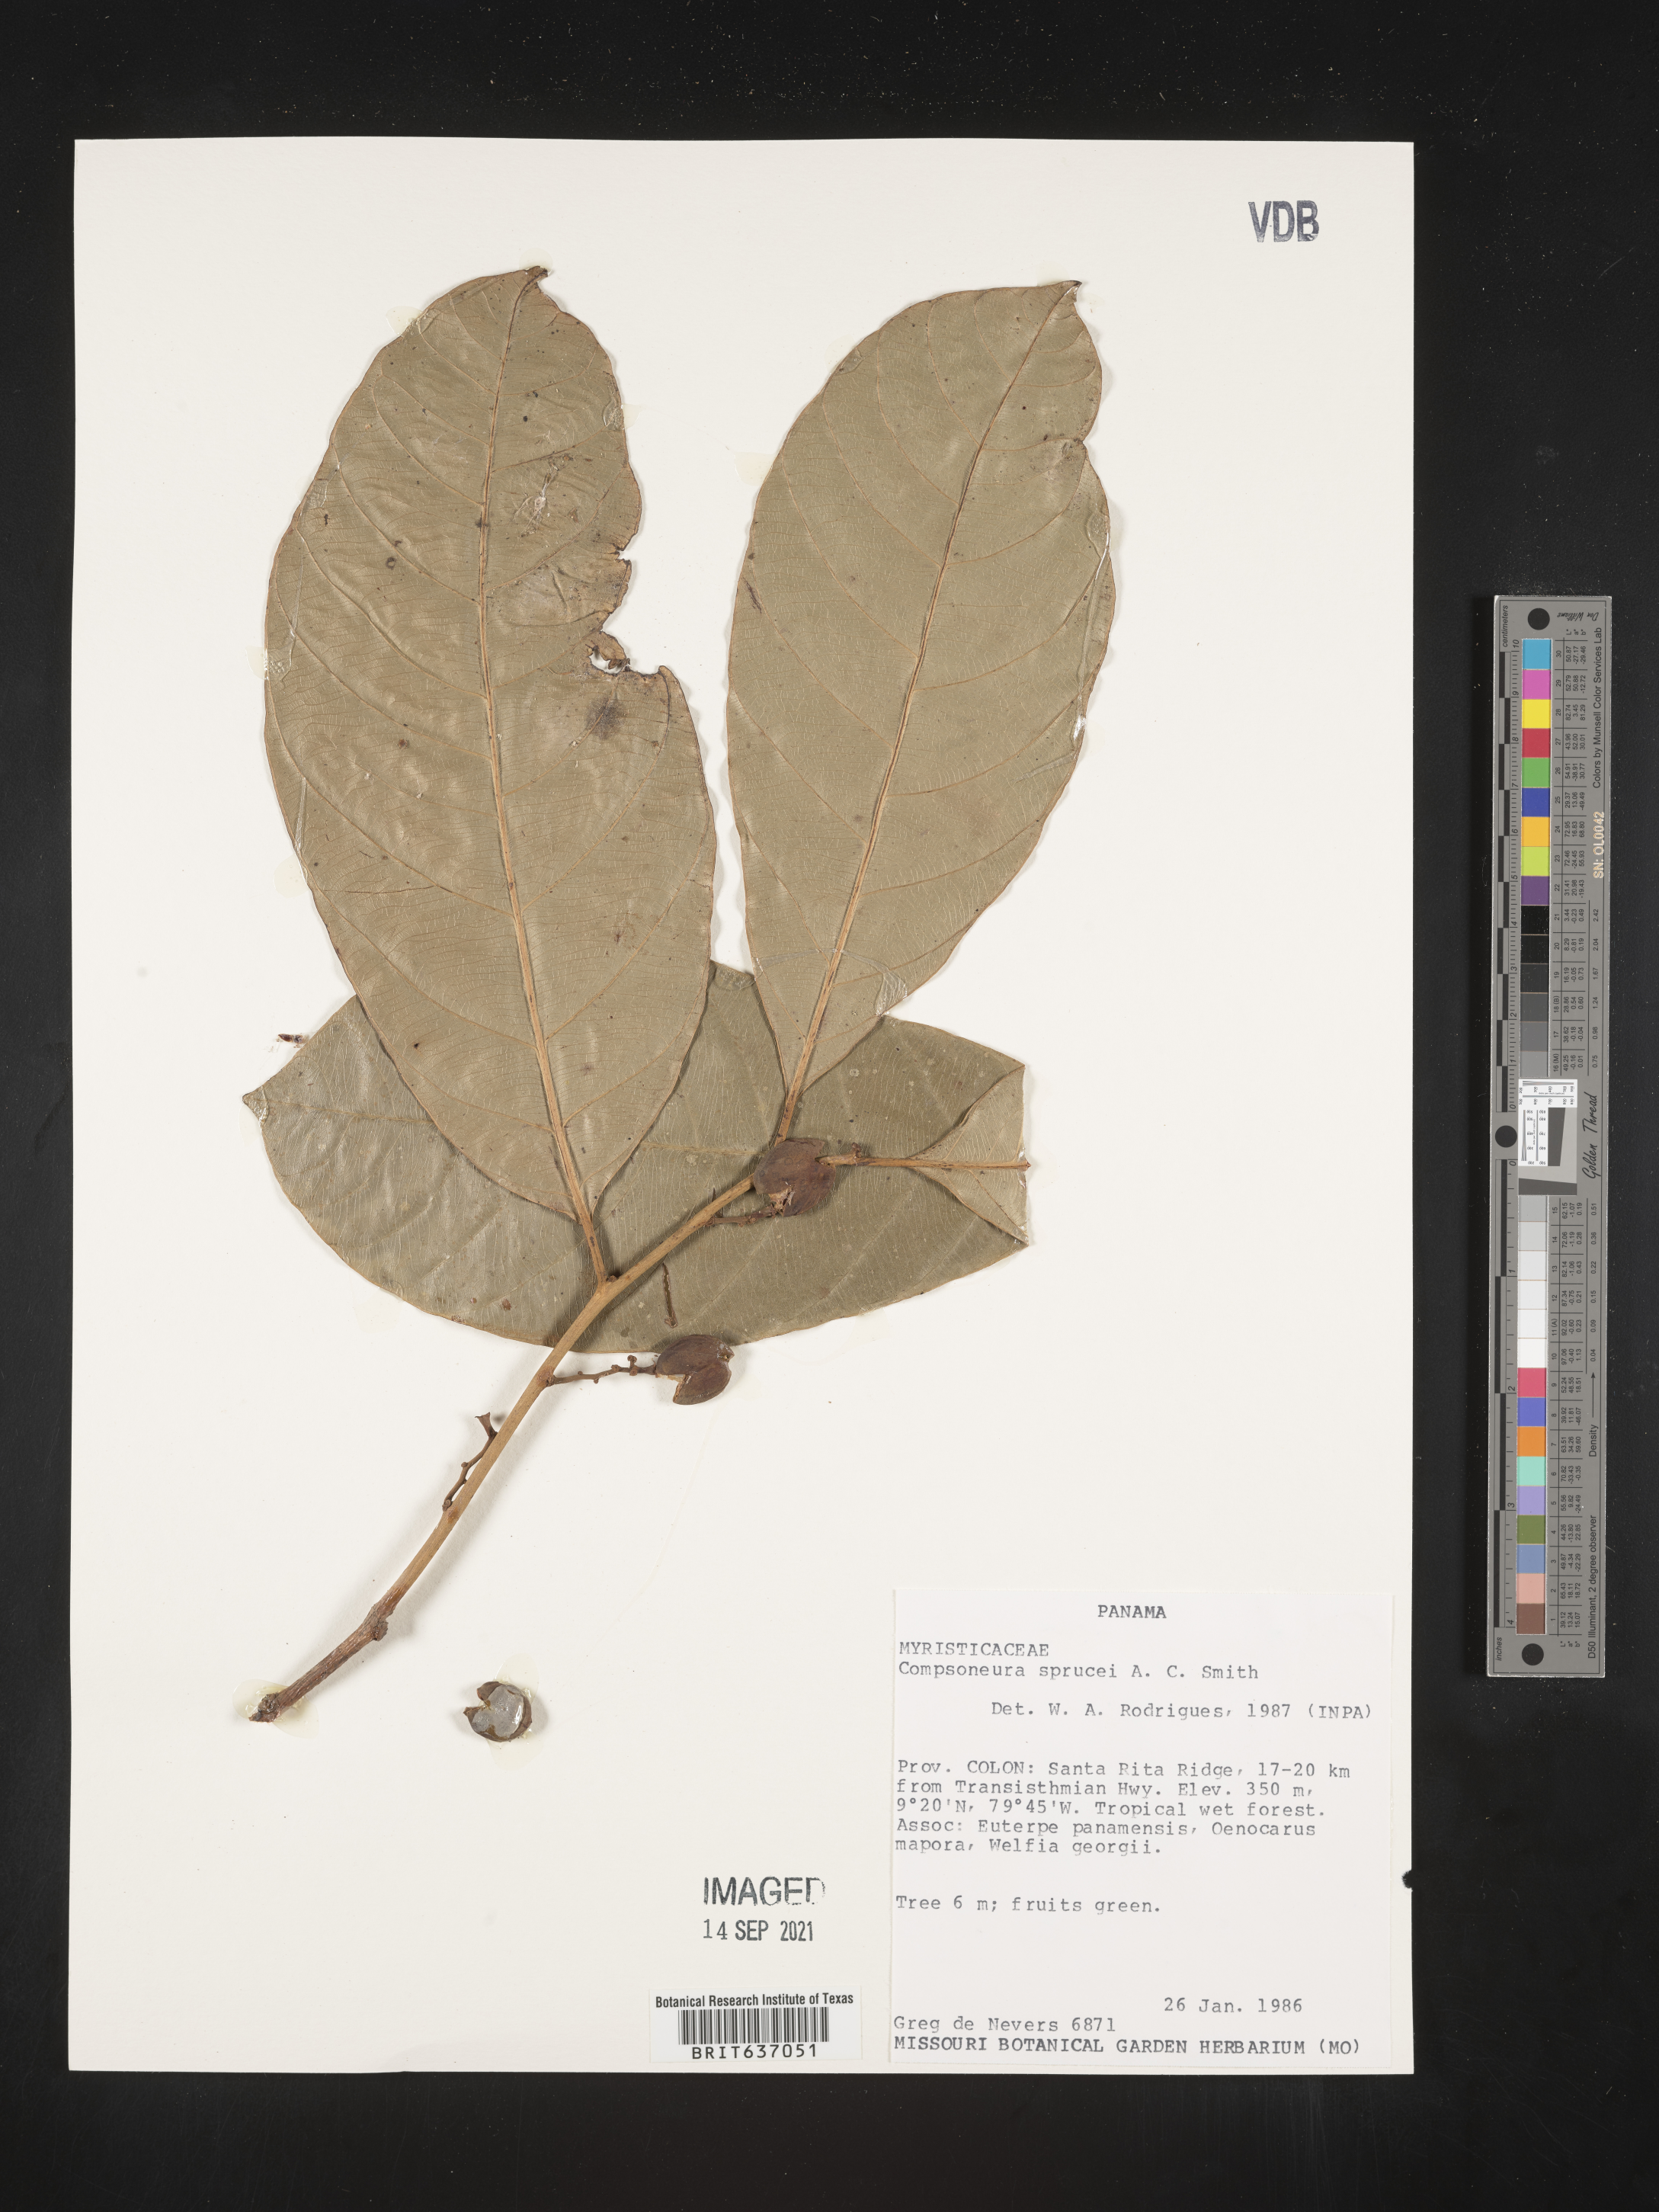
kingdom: Plantae
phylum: Tracheophyta
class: Magnoliopsida
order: Magnoliales
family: Myristicaceae
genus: Compsoneura
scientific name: Compsoneura
